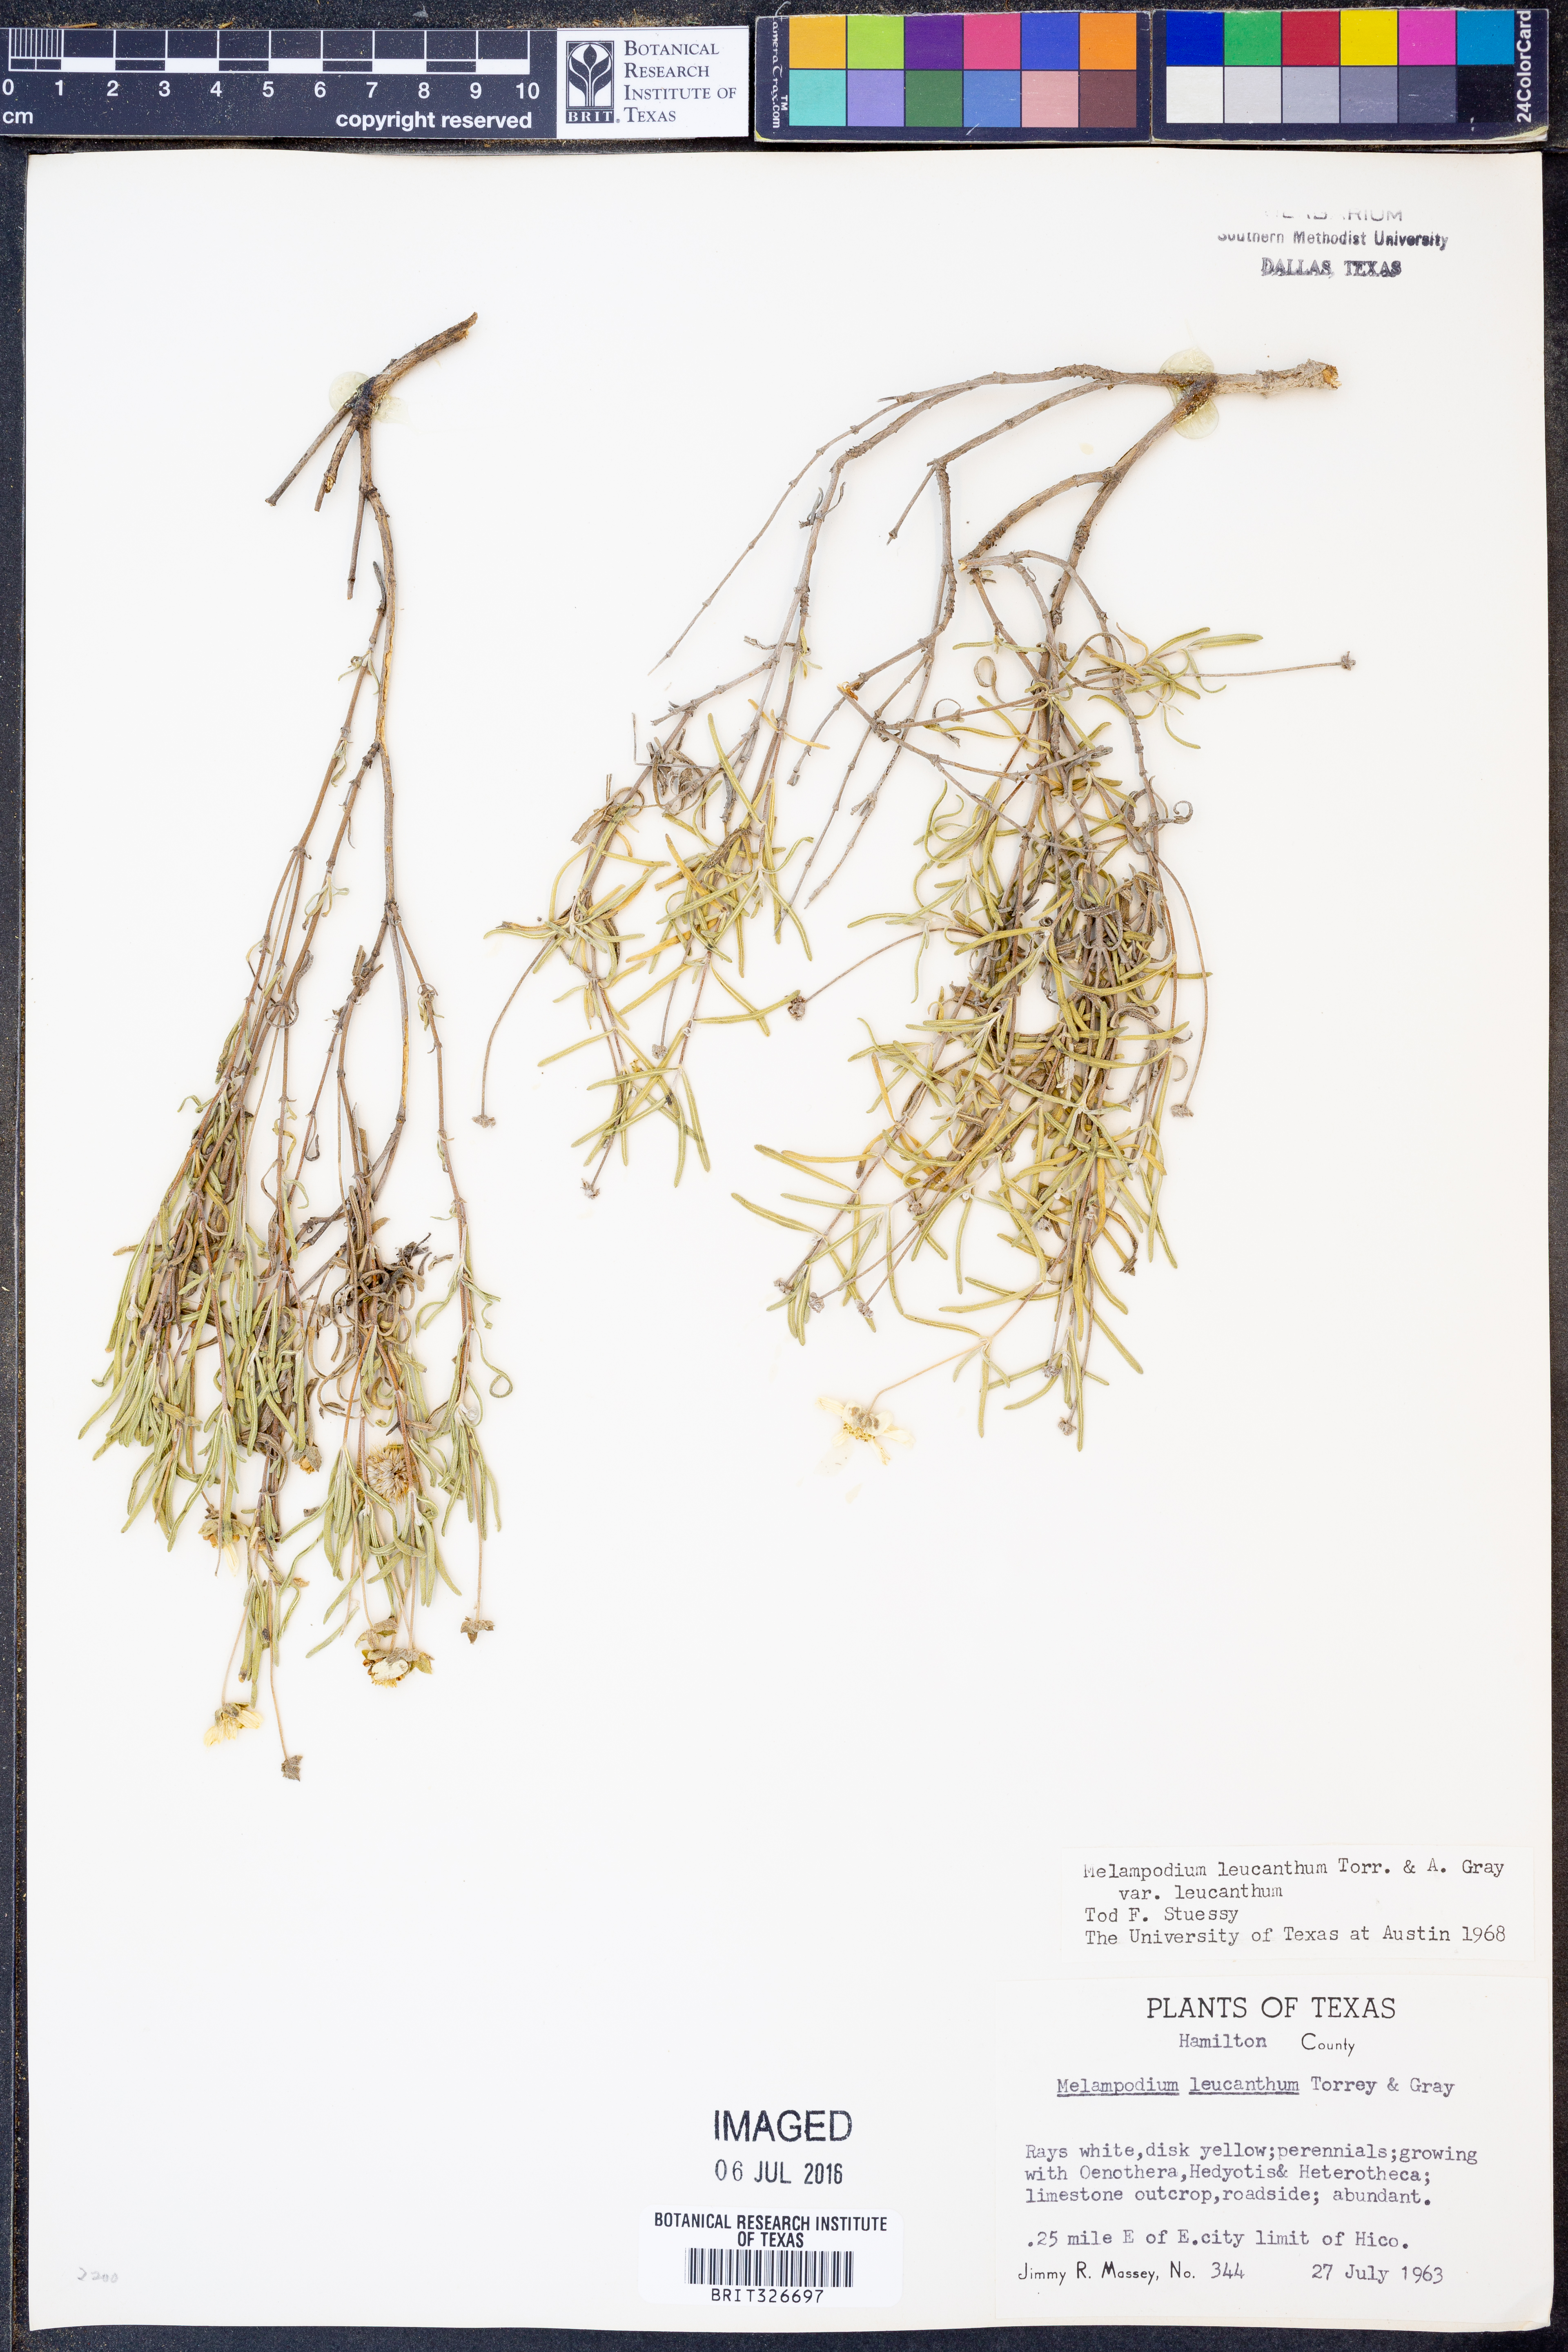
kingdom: Plantae
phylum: Tracheophyta
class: Magnoliopsida
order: Asterales
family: Asteraceae
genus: Melampodium
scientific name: Melampodium leucanthum
